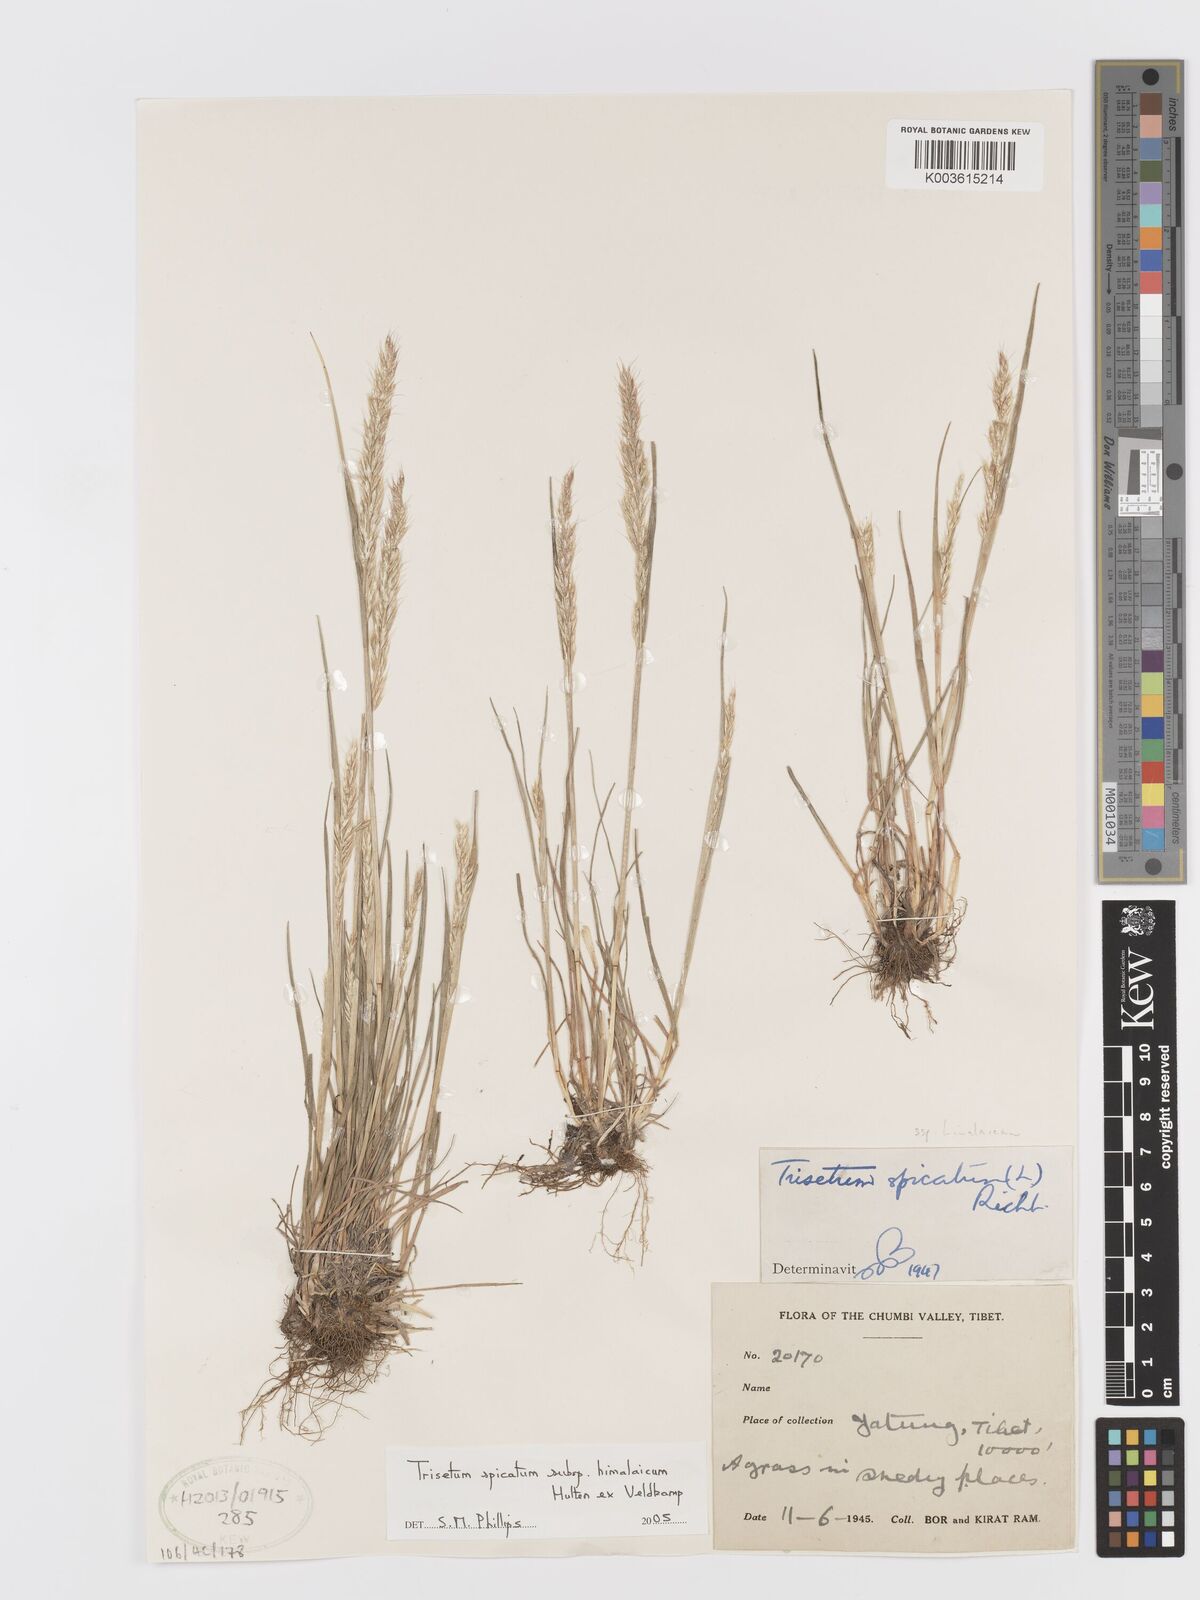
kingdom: Plantae
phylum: Tracheophyta
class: Liliopsida
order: Poales
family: Poaceae
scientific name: Poaceae
